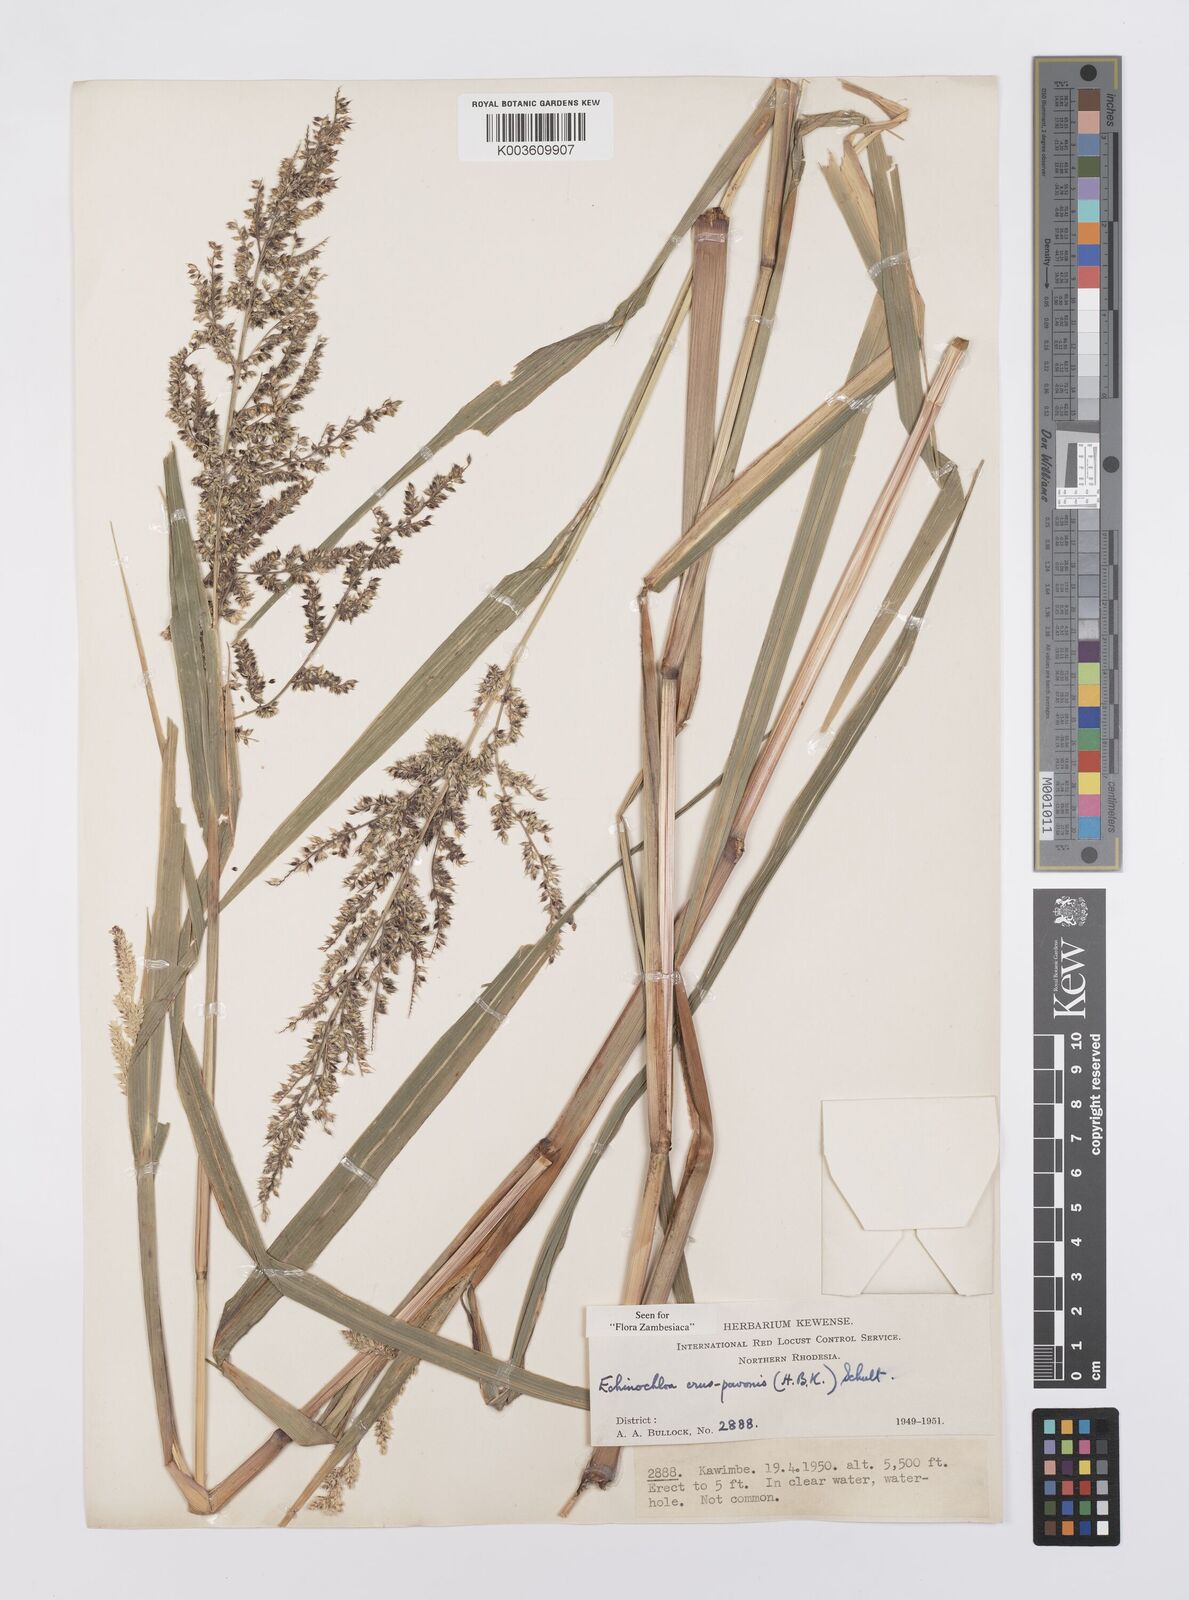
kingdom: Plantae
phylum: Tracheophyta
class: Liliopsida
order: Poales
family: Poaceae
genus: Echinochloa
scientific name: Echinochloa crus-pavonis
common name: Gulf cockspur grass
